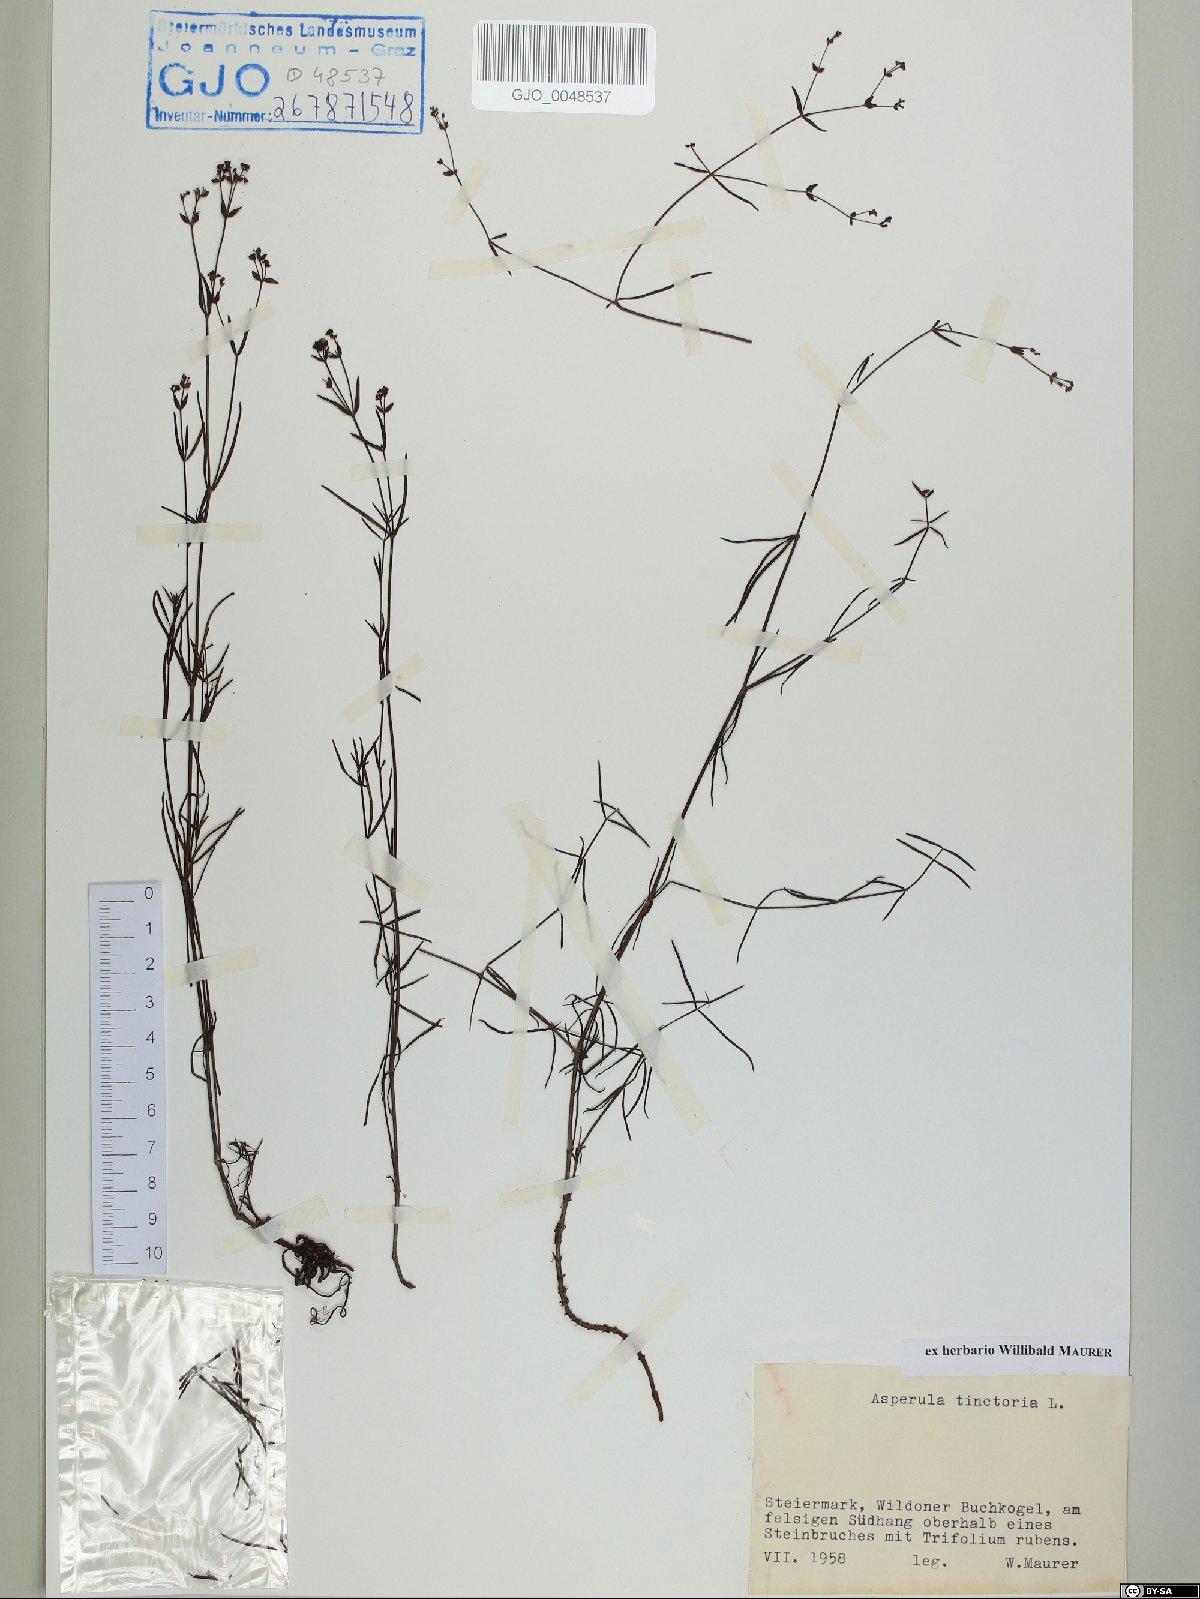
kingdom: Plantae
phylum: Tracheophyta
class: Magnoliopsida
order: Gentianales
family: Rubiaceae
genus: Asperula
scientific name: Asperula tinctoria
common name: Dyer's woodruff
